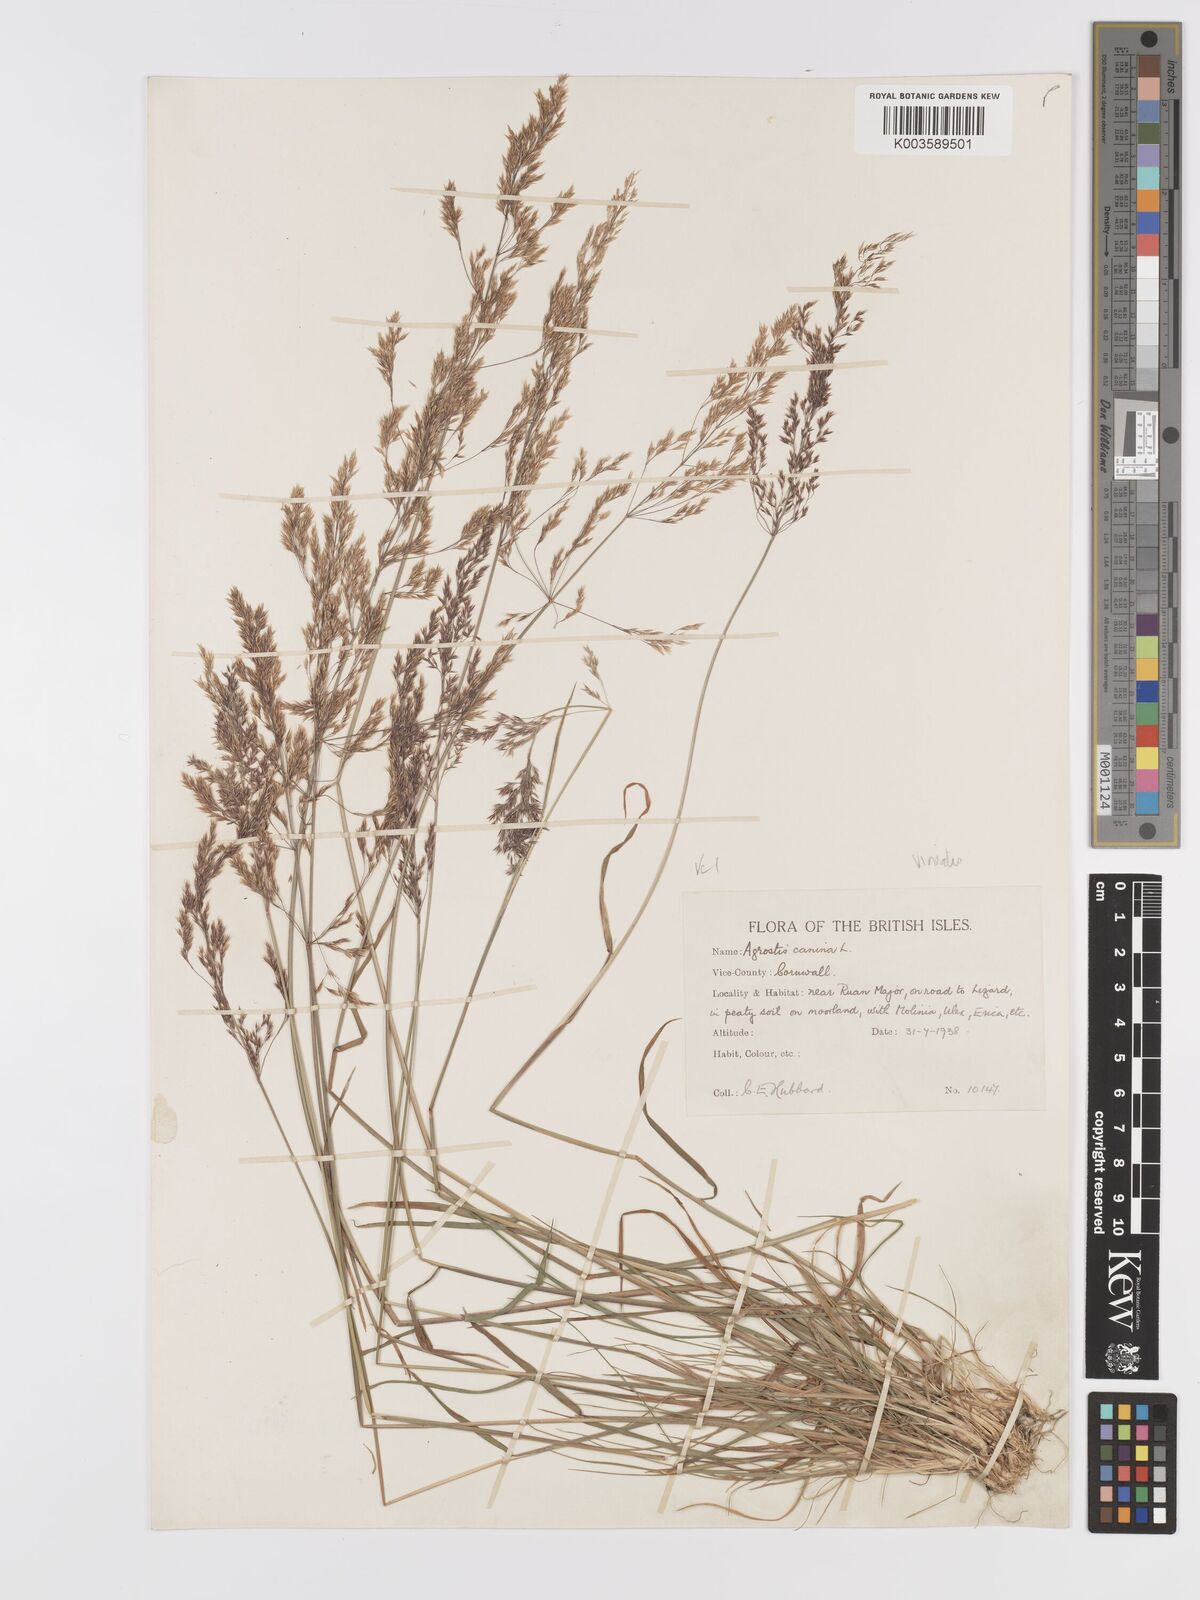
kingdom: Plantae
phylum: Tracheophyta
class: Liliopsida
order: Poales
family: Poaceae
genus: Agrostis
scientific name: Agrostis
